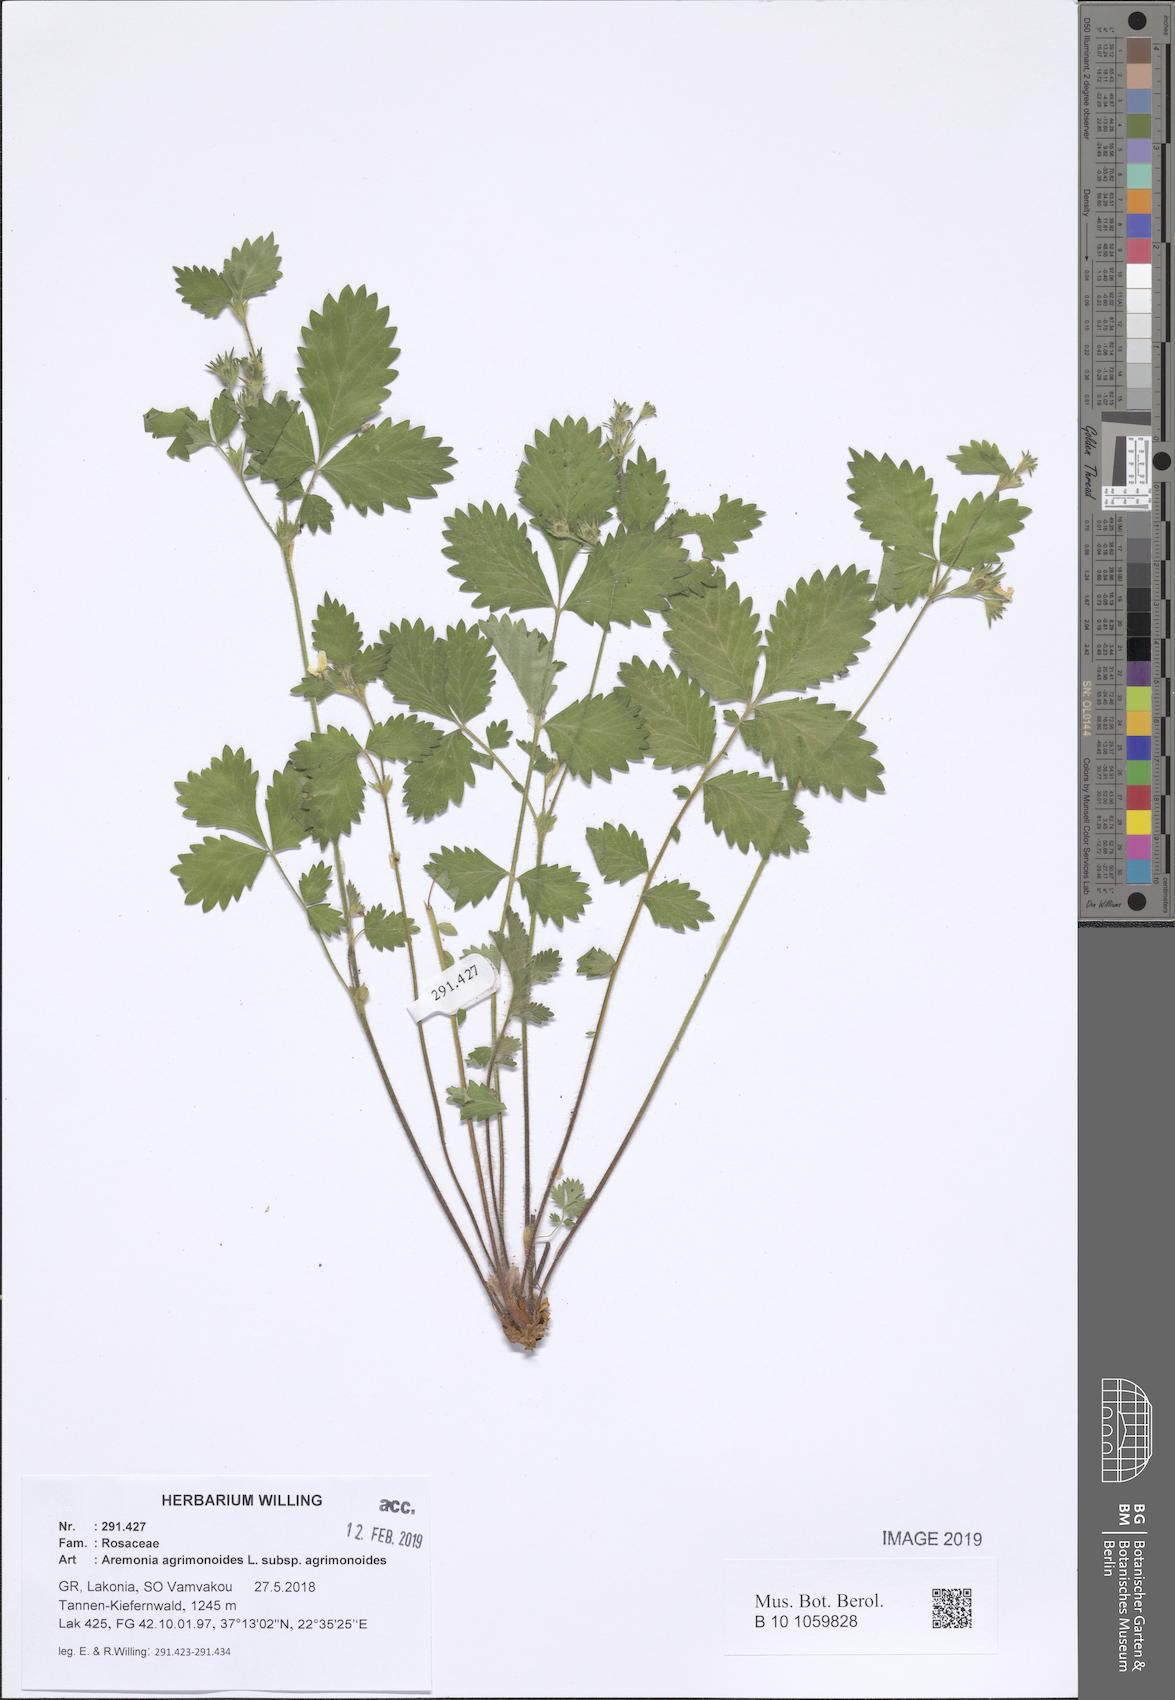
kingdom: Plantae
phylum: Tracheophyta
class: Magnoliopsida
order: Rosales
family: Rosaceae
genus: Aremonia
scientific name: Aremonia agrimonoides
